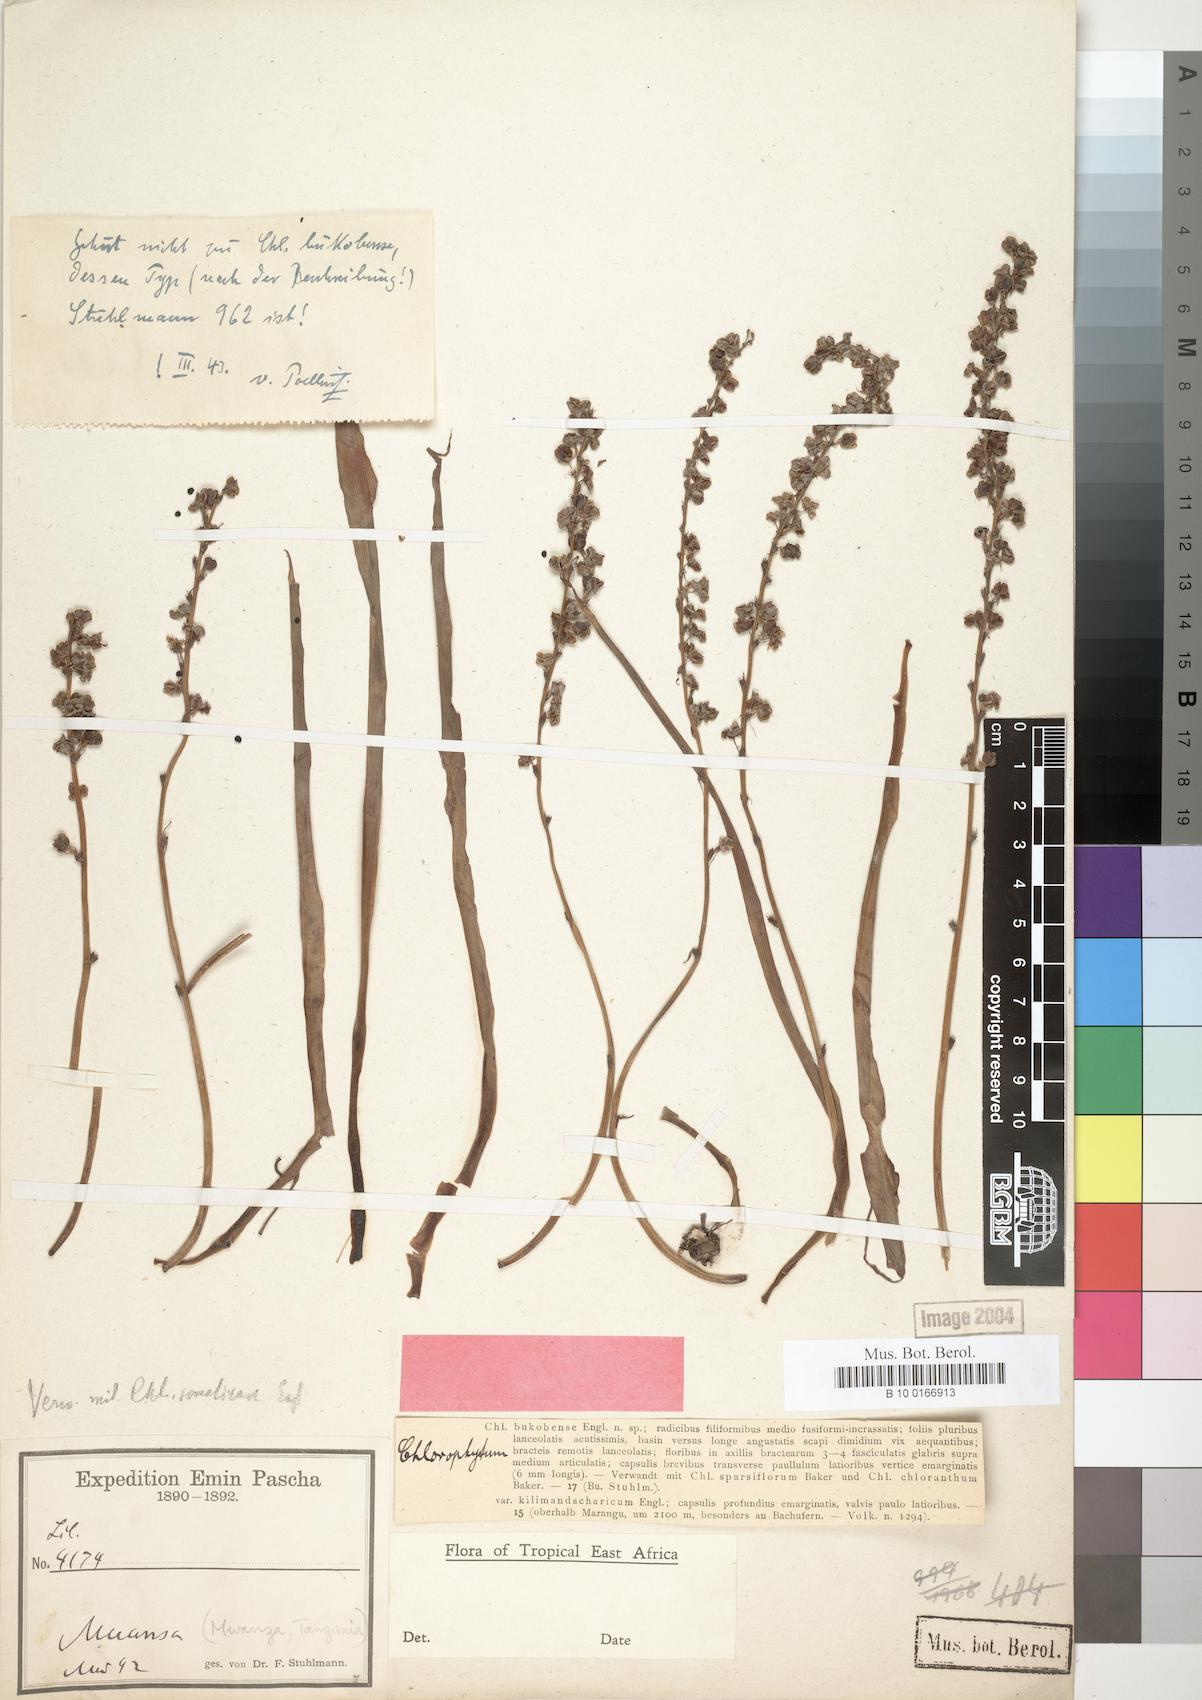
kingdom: Plantae
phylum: Tracheophyta
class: Liliopsida
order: Asparagales
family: Asparagaceae
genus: Chlorophytum
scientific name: Chlorophytum comosum
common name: Spider plant
